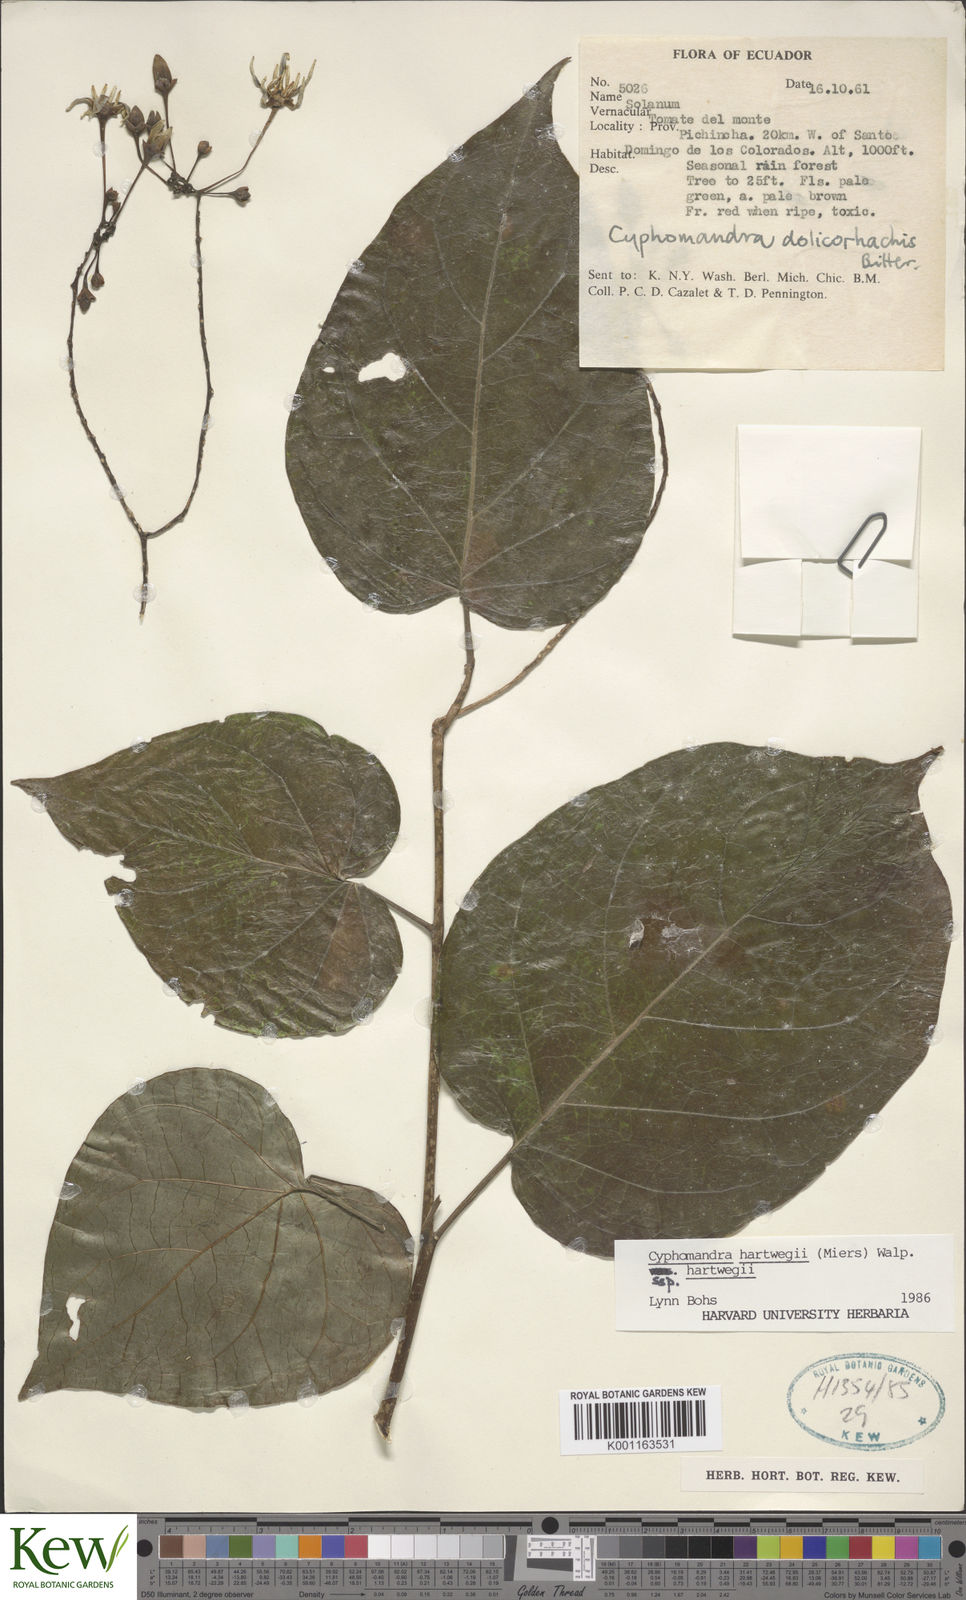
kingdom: Plantae
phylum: Tracheophyta
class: Magnoliopsida
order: Solanales
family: Solanaceae
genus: Solanum
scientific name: Solanum splendens
